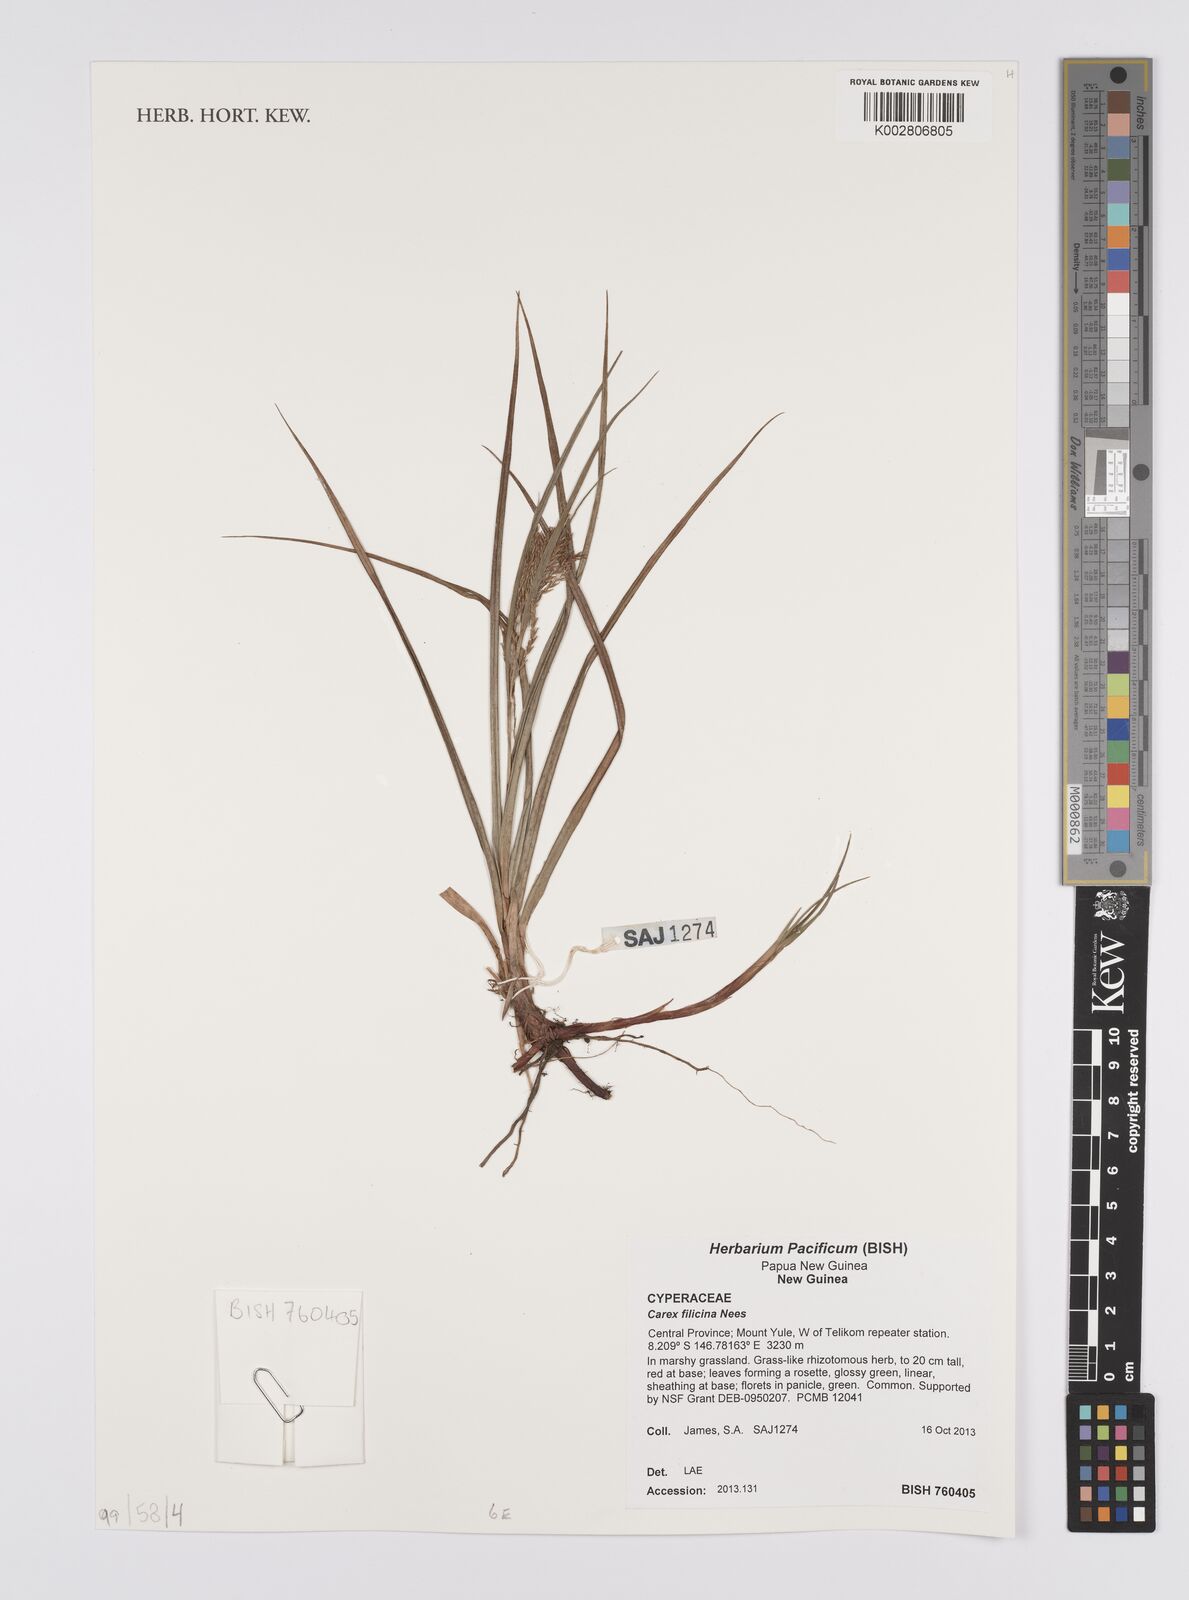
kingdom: Plantae
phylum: Tracheophyta
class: Liliopsida
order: Poales
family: Cyperaceae
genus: Carex
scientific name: Carex filicina
